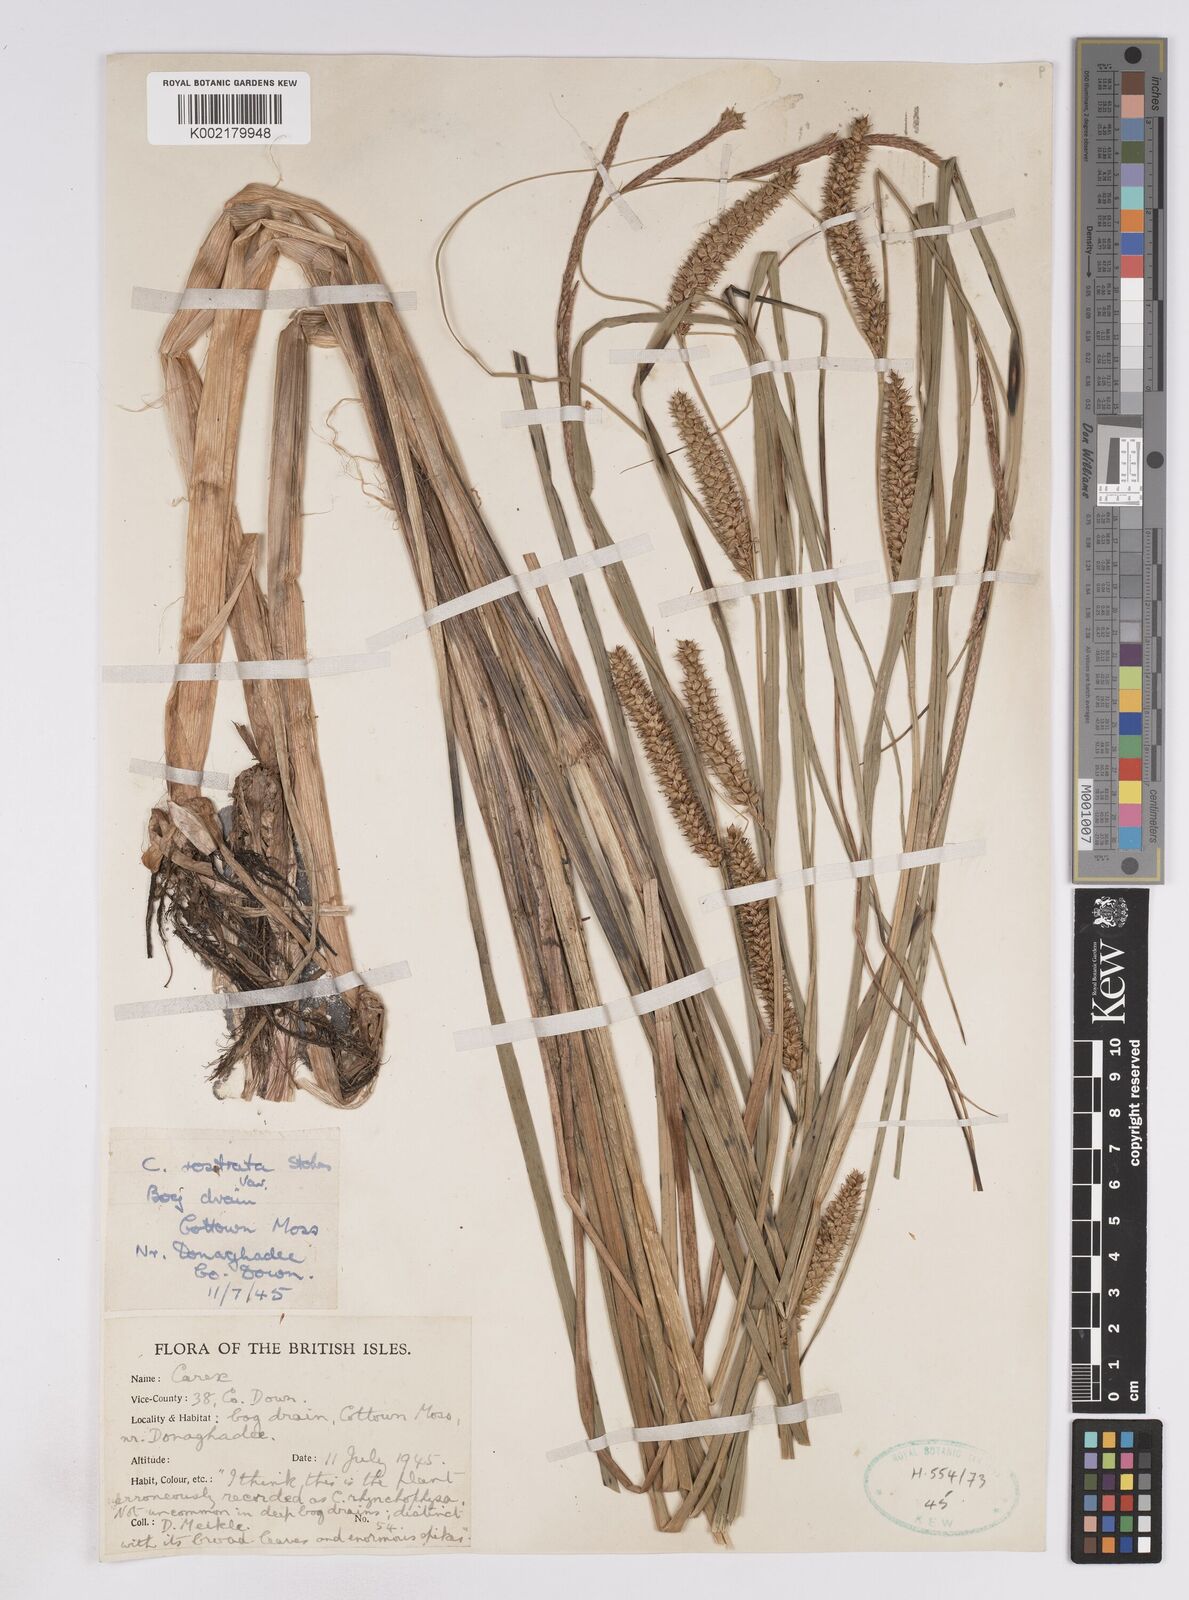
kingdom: Plantae
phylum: Tracheophyta
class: Liliopsida
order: Poales
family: Cyperaceae
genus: Carex
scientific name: Carex utriculata
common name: Beaked sedge
